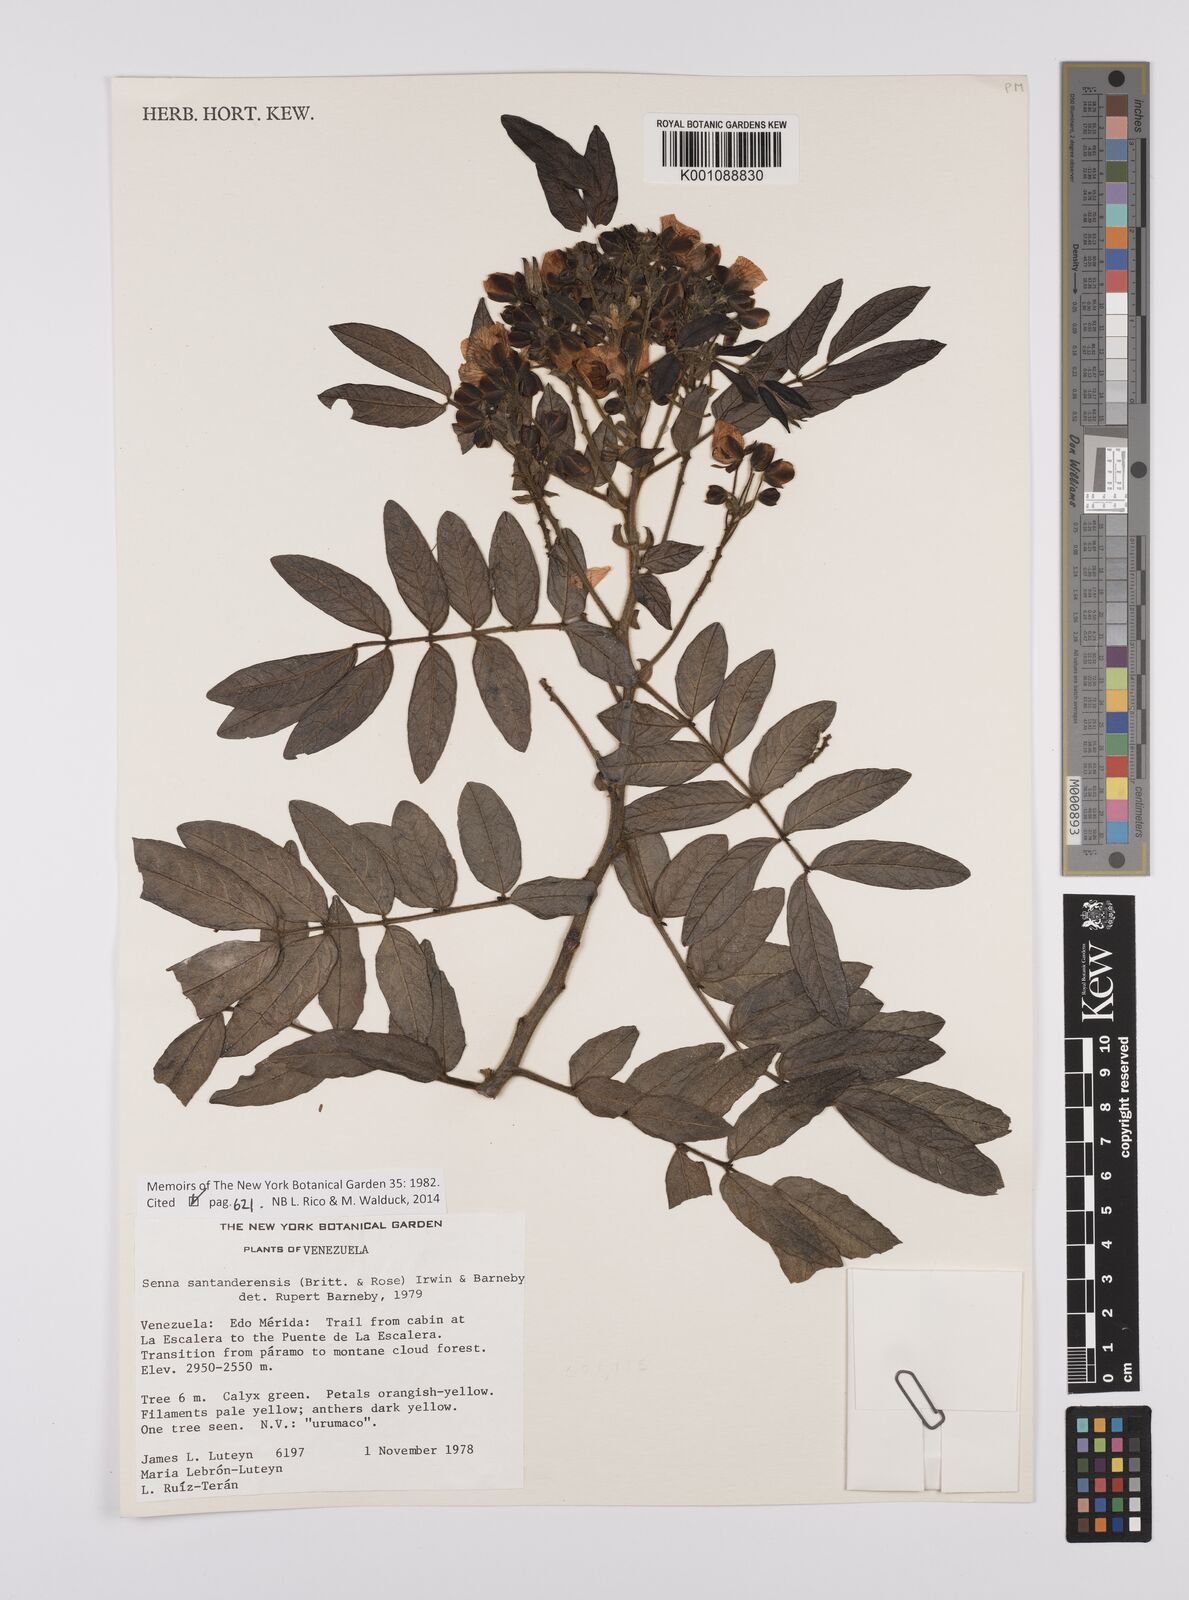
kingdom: Plantae
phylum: Tracheophyta
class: Magnoliopsida
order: Fabales
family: Fabaceae
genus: Senna
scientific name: Senna santanderensis
